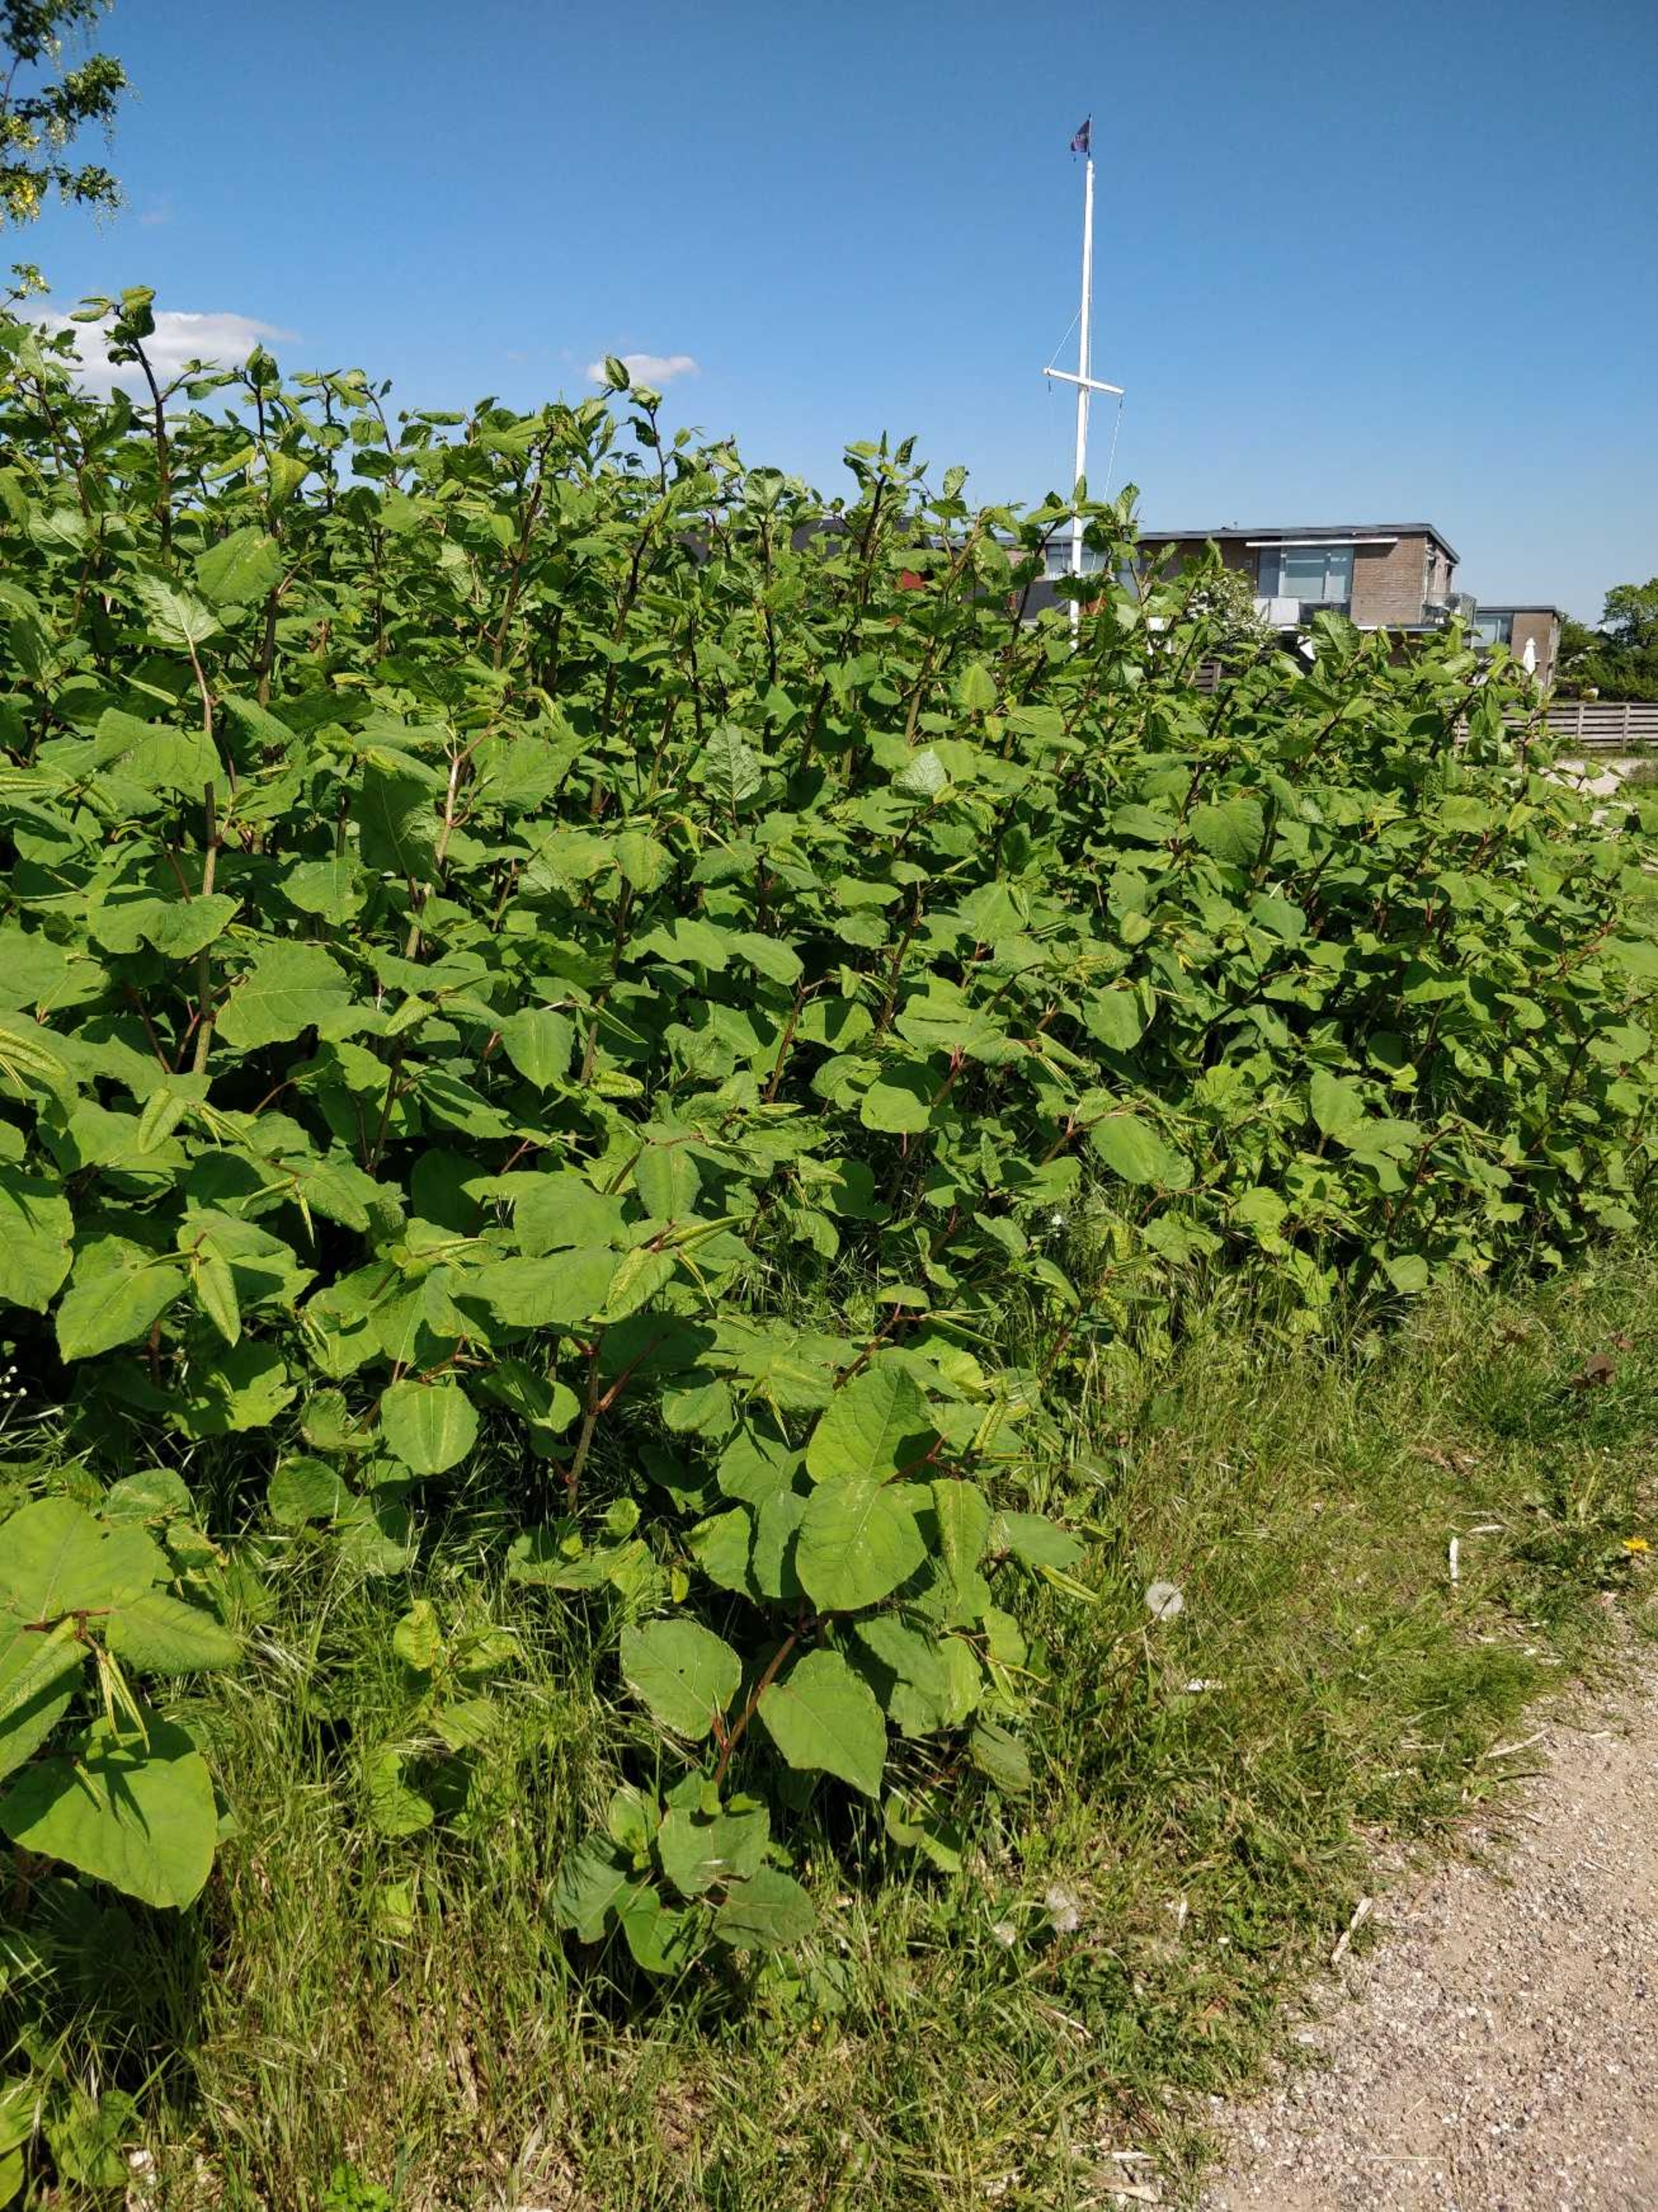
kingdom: Plantae
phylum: Tracheophyta
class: Magnoliopsida
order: Caryophyllales
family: Polygonaceae
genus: Reynoutria
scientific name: Reynoutria japonica
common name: Japan-pileurt
